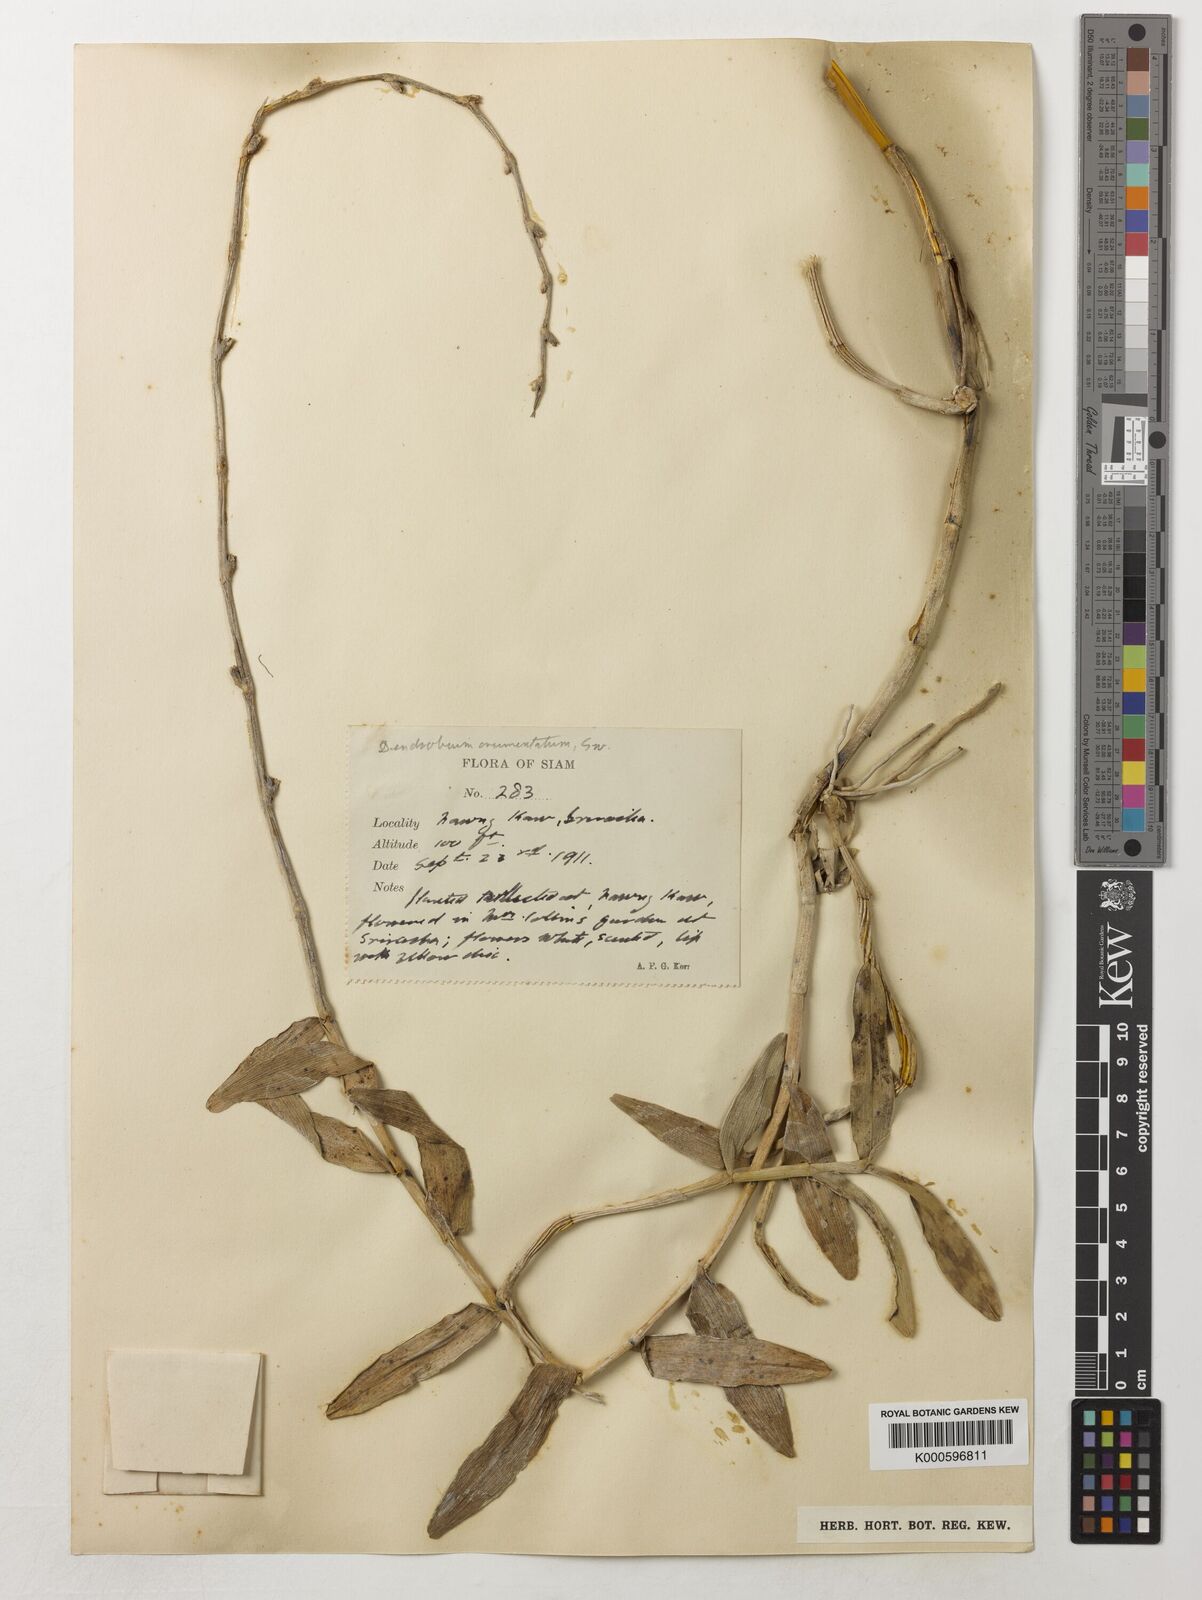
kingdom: Plantae
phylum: Tracheophyta
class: Liliopsida
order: Asparagales
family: Orchidaceae
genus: Dendrobium
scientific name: Dendrobium crumenatum
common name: Orchid
